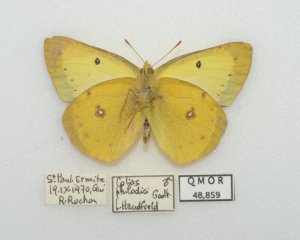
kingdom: Animalia
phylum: Arthropoda
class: Insecta
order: Lepidoptera
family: Pieridae
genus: Colias
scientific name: Colias philodice
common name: Clouded Sulphur
